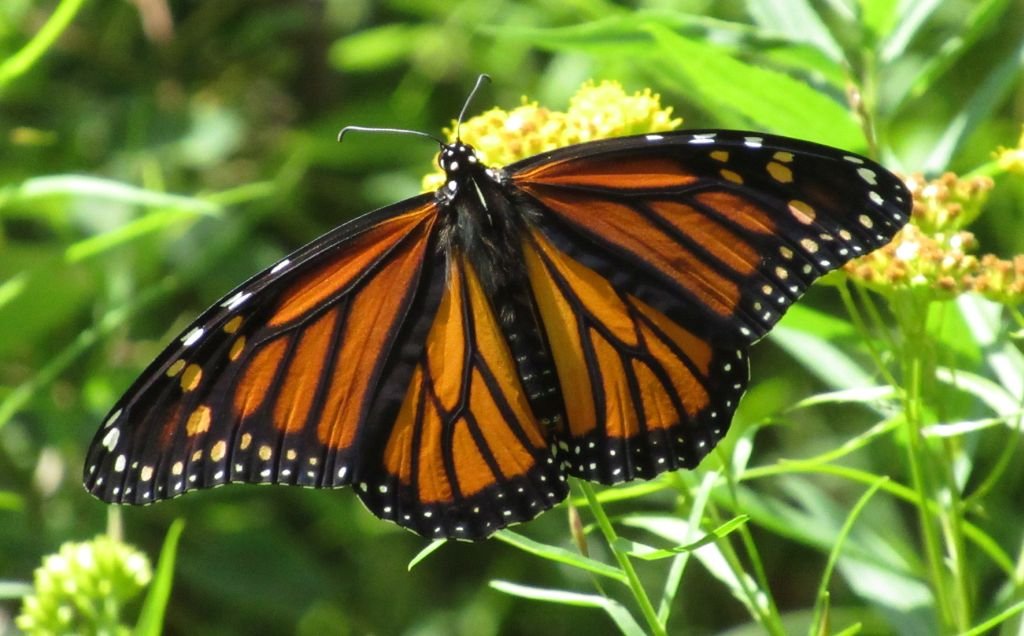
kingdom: Animalia
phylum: Arthropoda
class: Insecta
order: Lepidoptera
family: Nymphalidae
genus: Danaus
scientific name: Danaus plexippus
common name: Monarch
